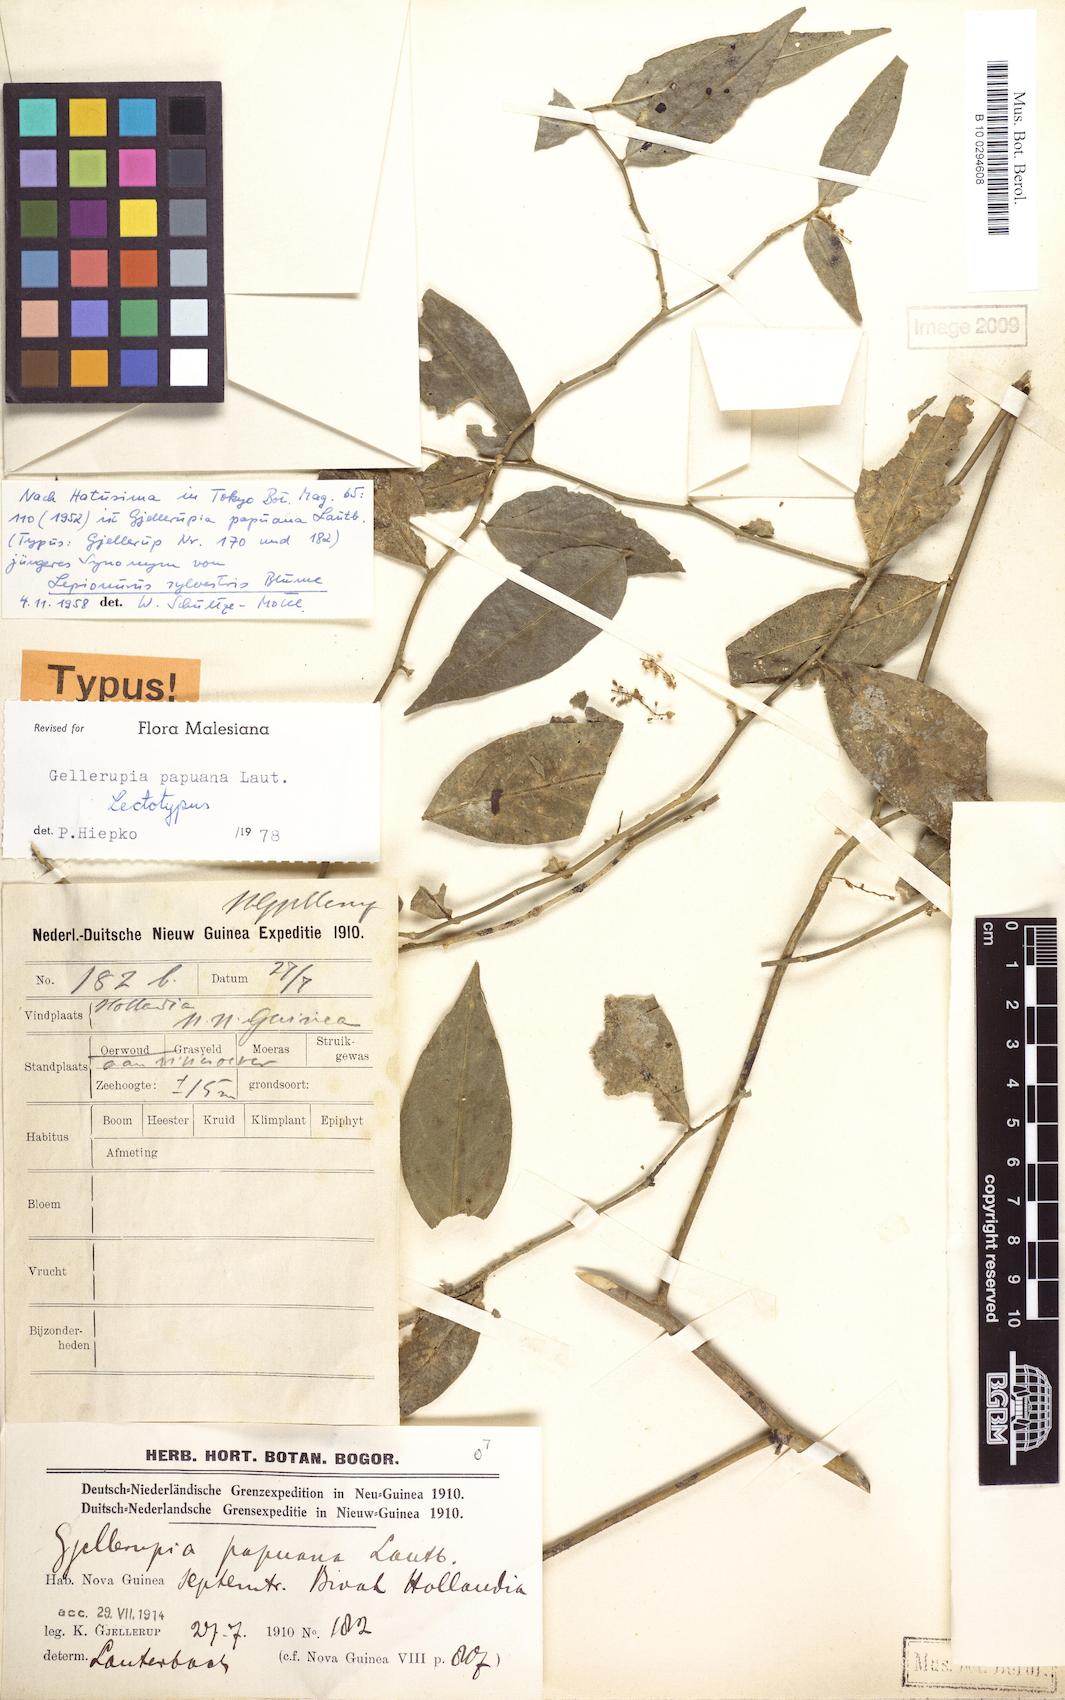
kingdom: Plantae
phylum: Tracheophyta
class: Magnoliopsida
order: Santalales
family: Opiliaceae
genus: Gjellerupia
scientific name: Gjellerupia papuana
